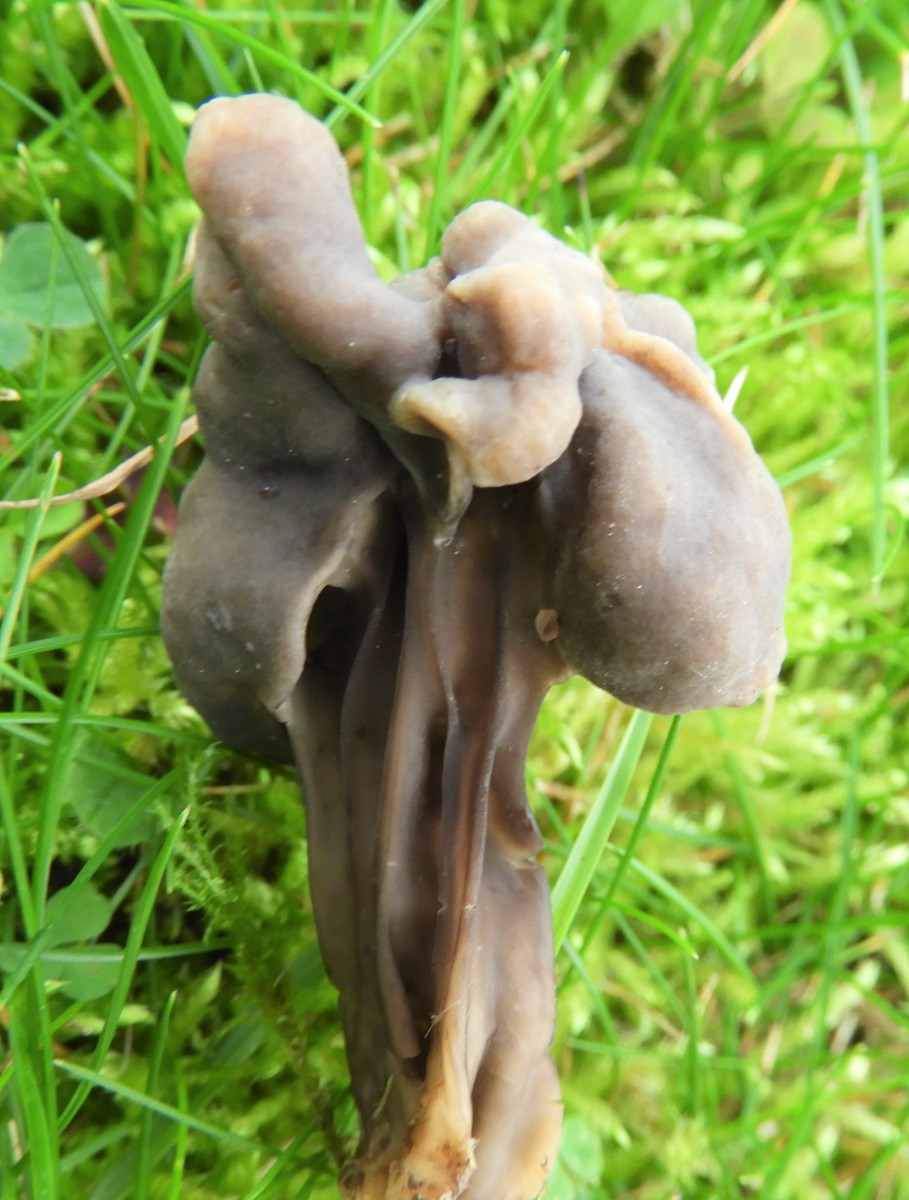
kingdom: Fungi
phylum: Ascomycota
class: Pezizomycetes
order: Pezizales
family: Helvellaceae
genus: Helvella
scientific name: Helvella lacunosa
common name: grubet foldhat
